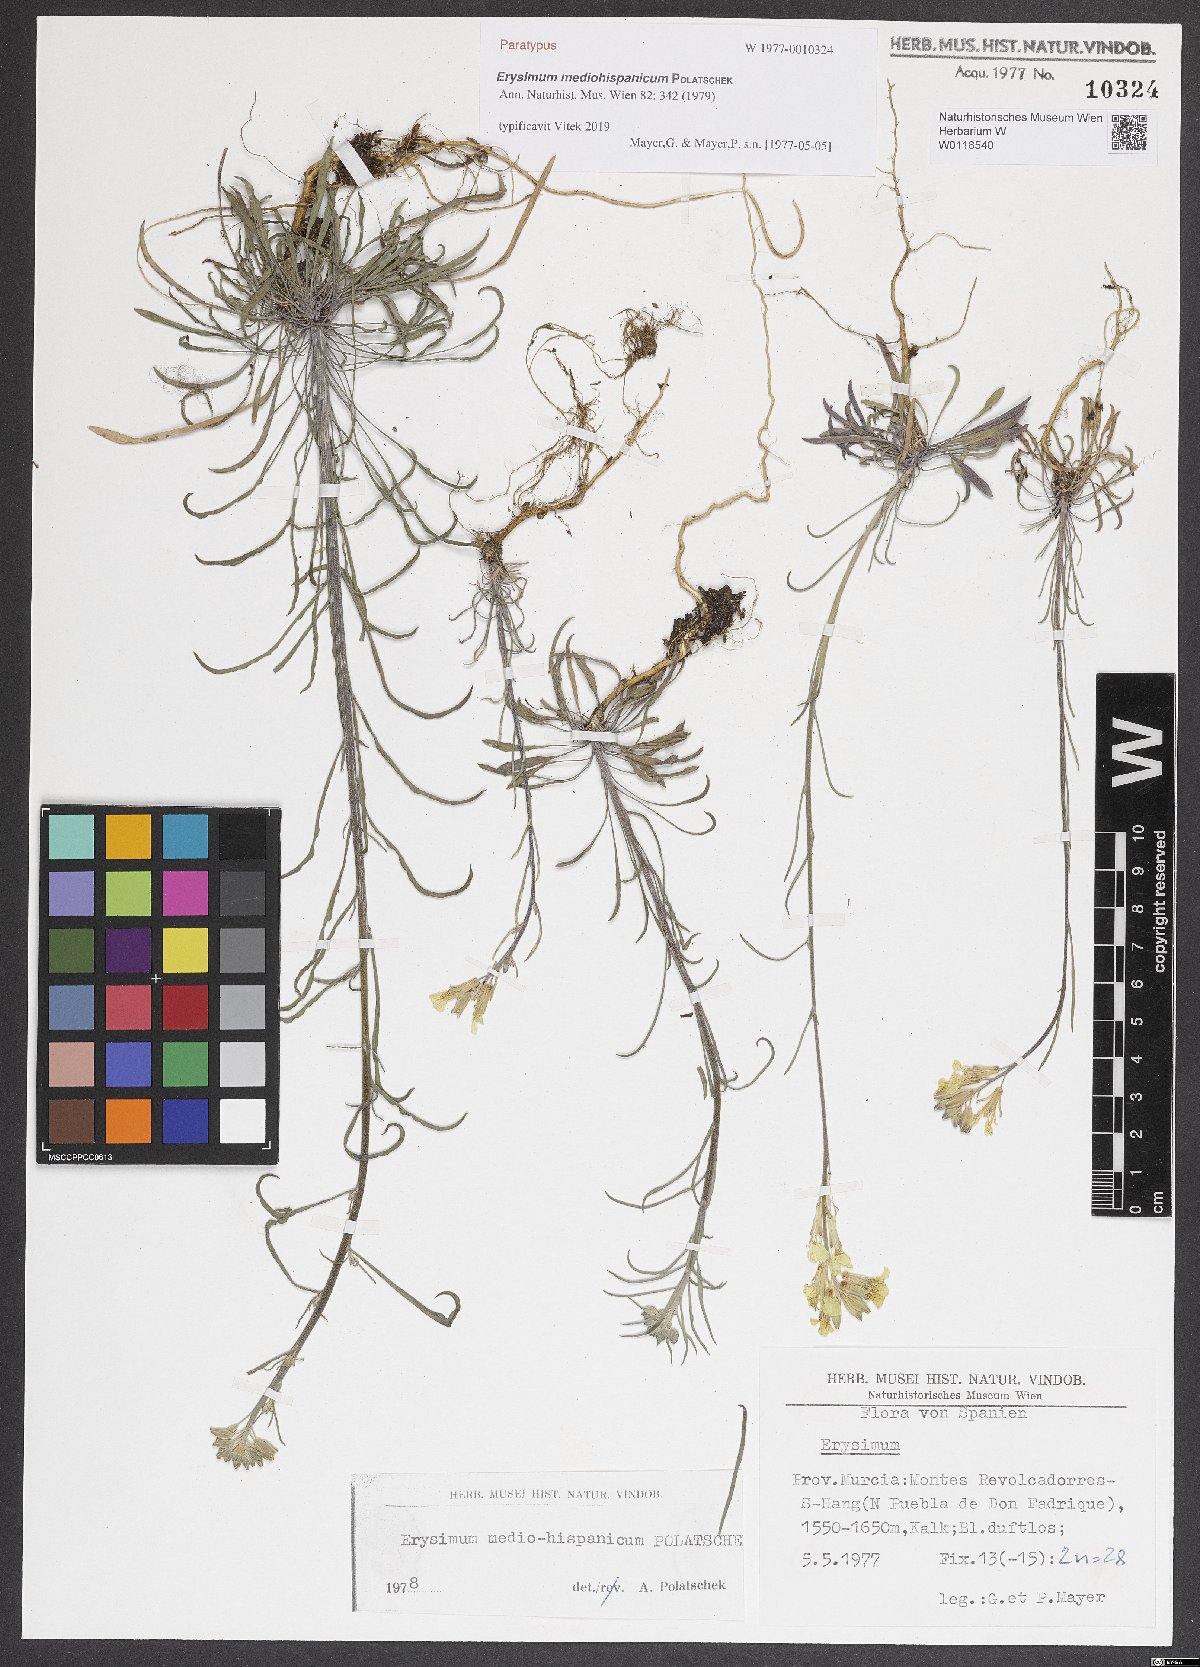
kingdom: Plantae
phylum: Tracheophyta
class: Magnoliopsida
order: Brassicales
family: Brassicaceae
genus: Erysimum
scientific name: Erysimum nevadense
